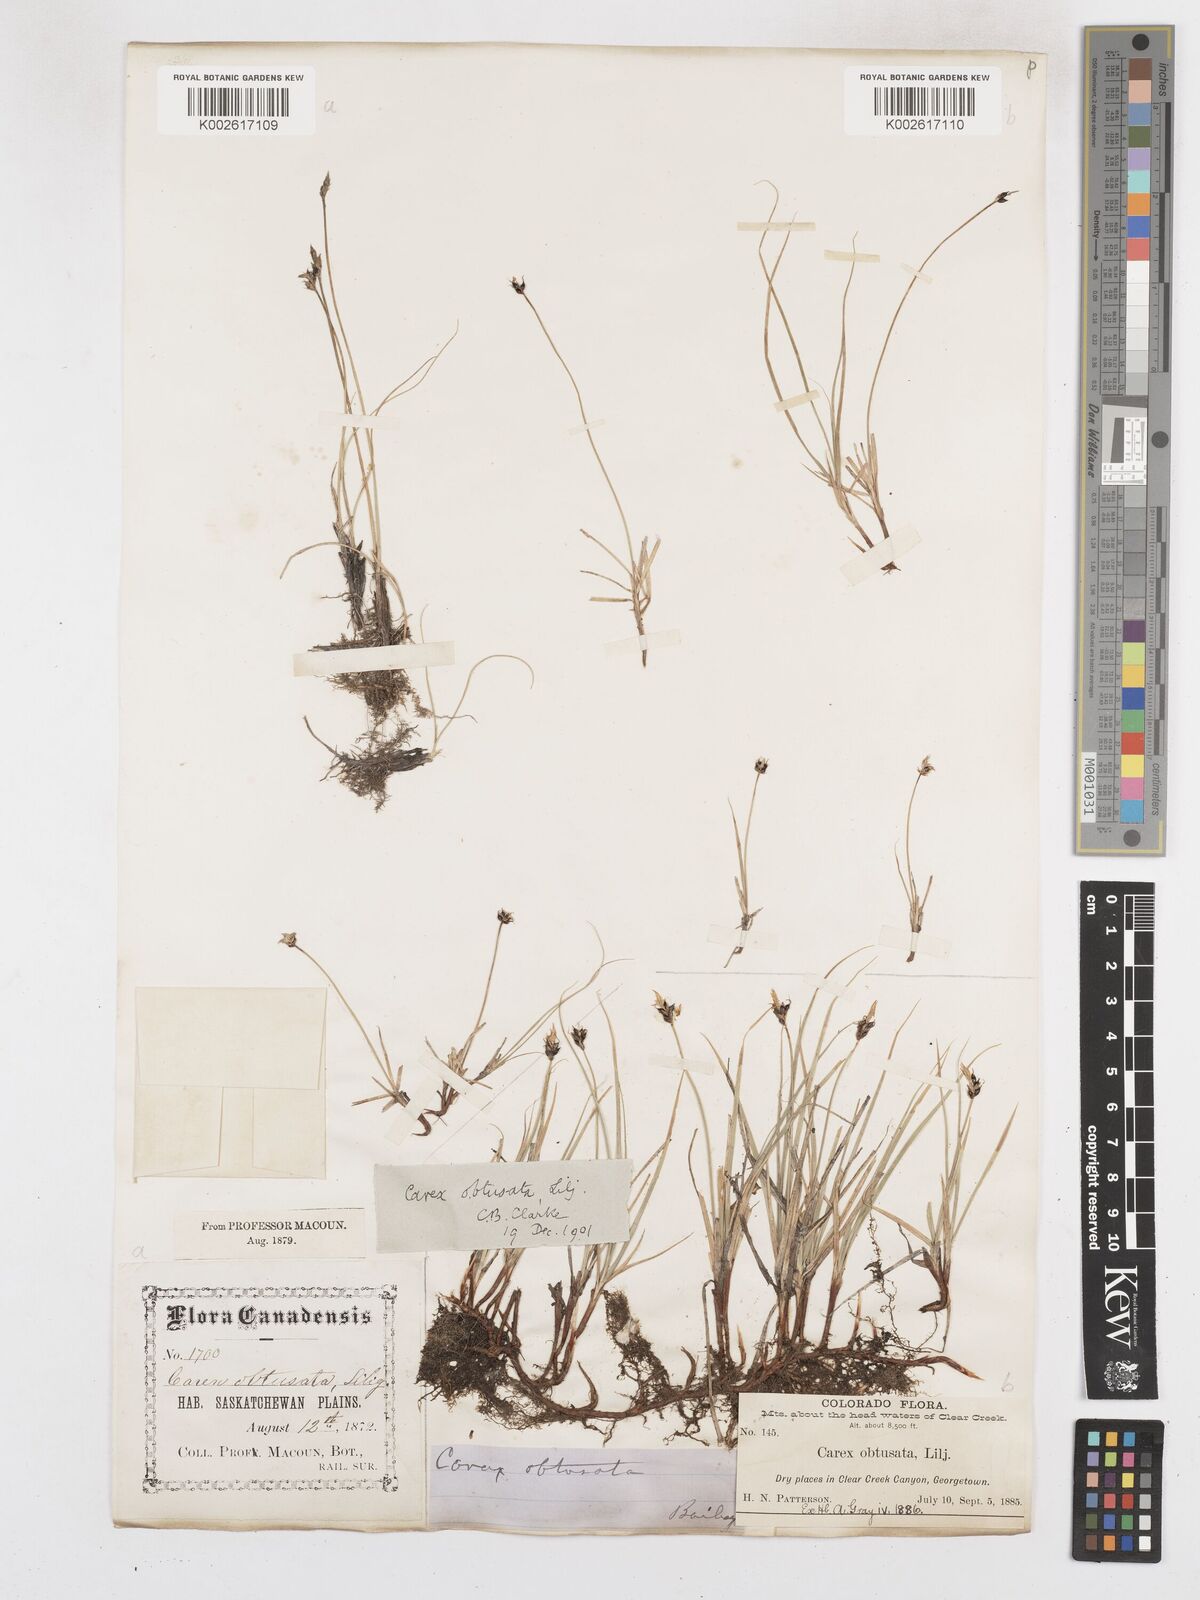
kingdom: Plantae
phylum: Tracheophyta
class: Liliopsida
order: Poales
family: Cyperaceae
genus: Carex
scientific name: Carex obtusata
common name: Blunt sedge
